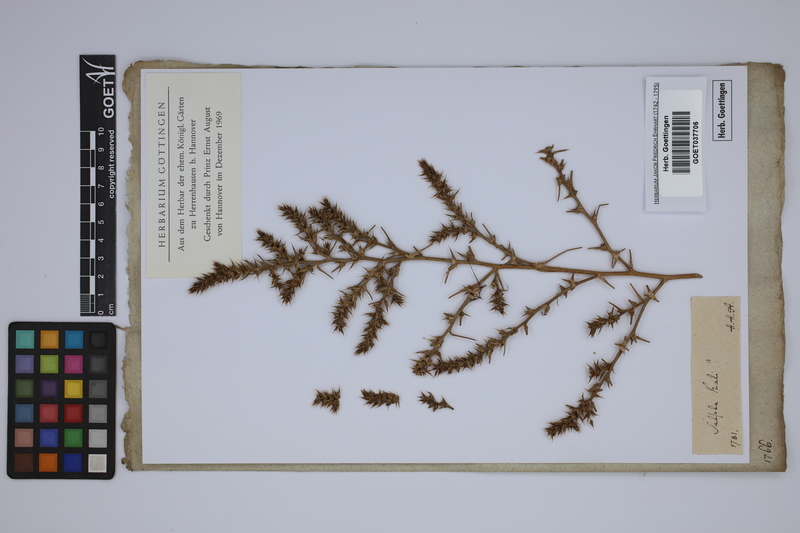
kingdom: Plantae
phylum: Tracheophyta
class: Magnoliopsida
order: Caryophyllales
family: Amaranthaceae
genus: Salsola
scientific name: Salsola kali
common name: Saltwort
